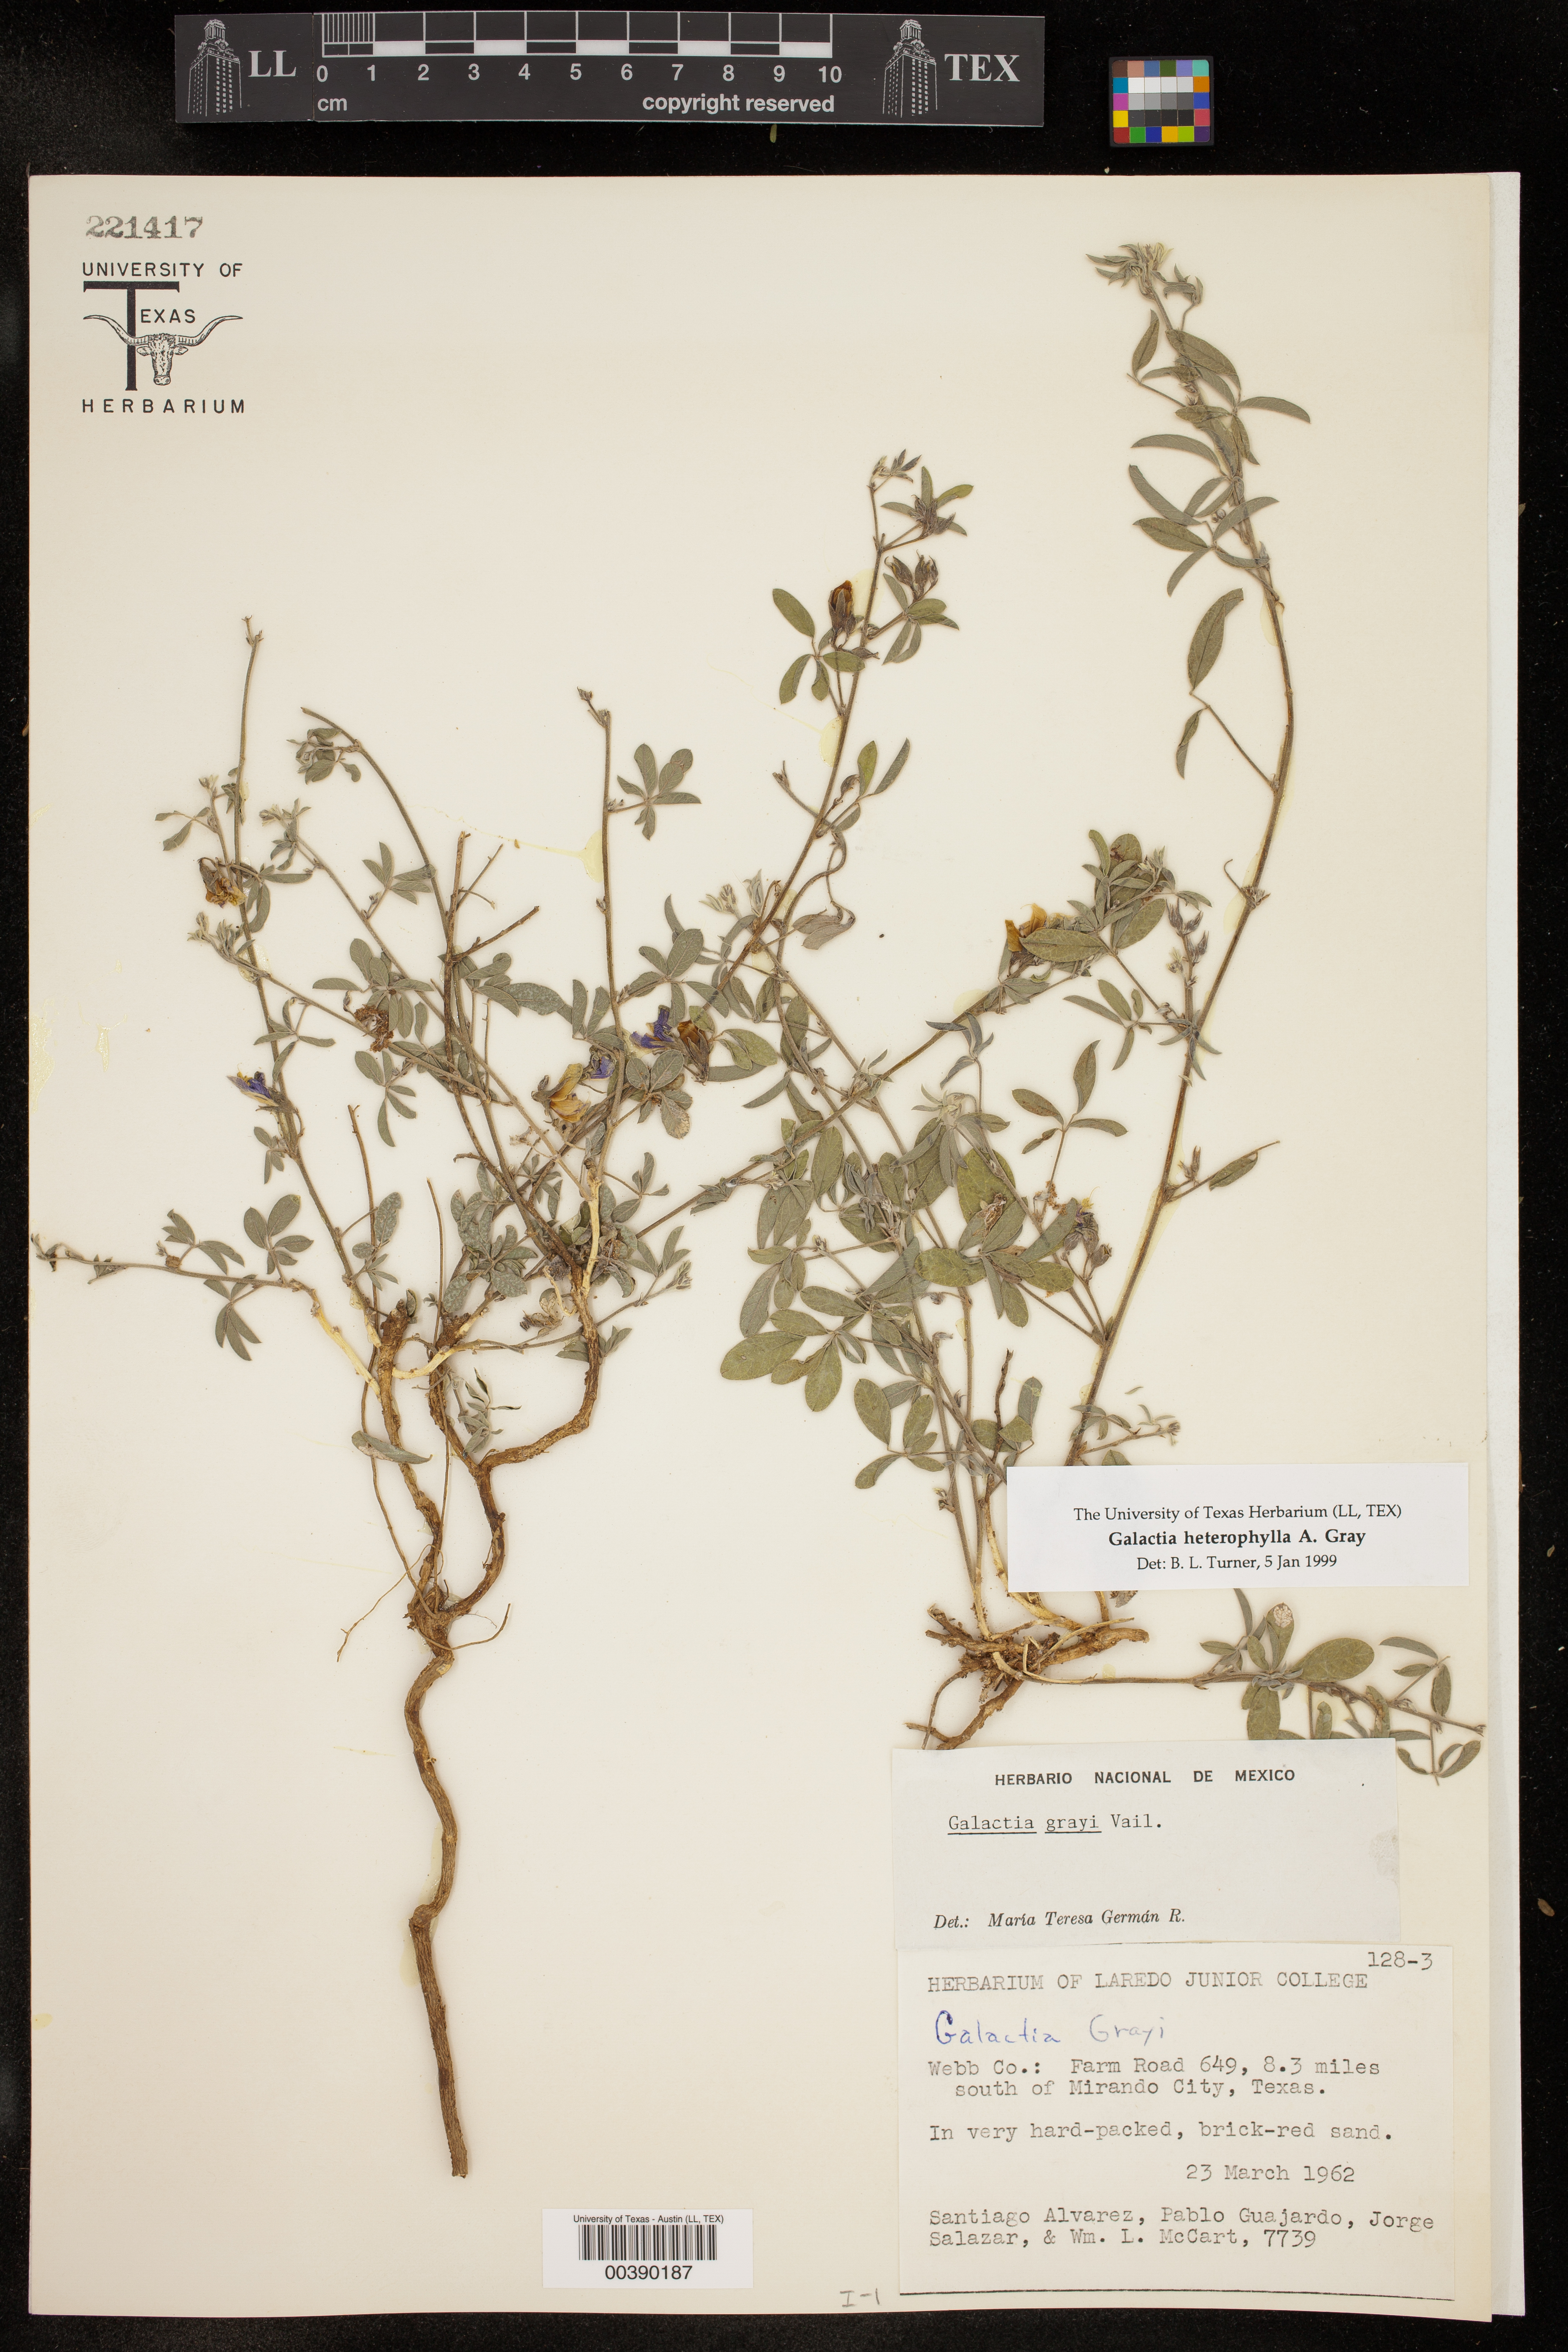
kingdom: Plantae
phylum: Tracheophyta
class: Magnoliopsida
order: Fabales
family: Fabaceae
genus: Galactia
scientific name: Galactia heterophylla
